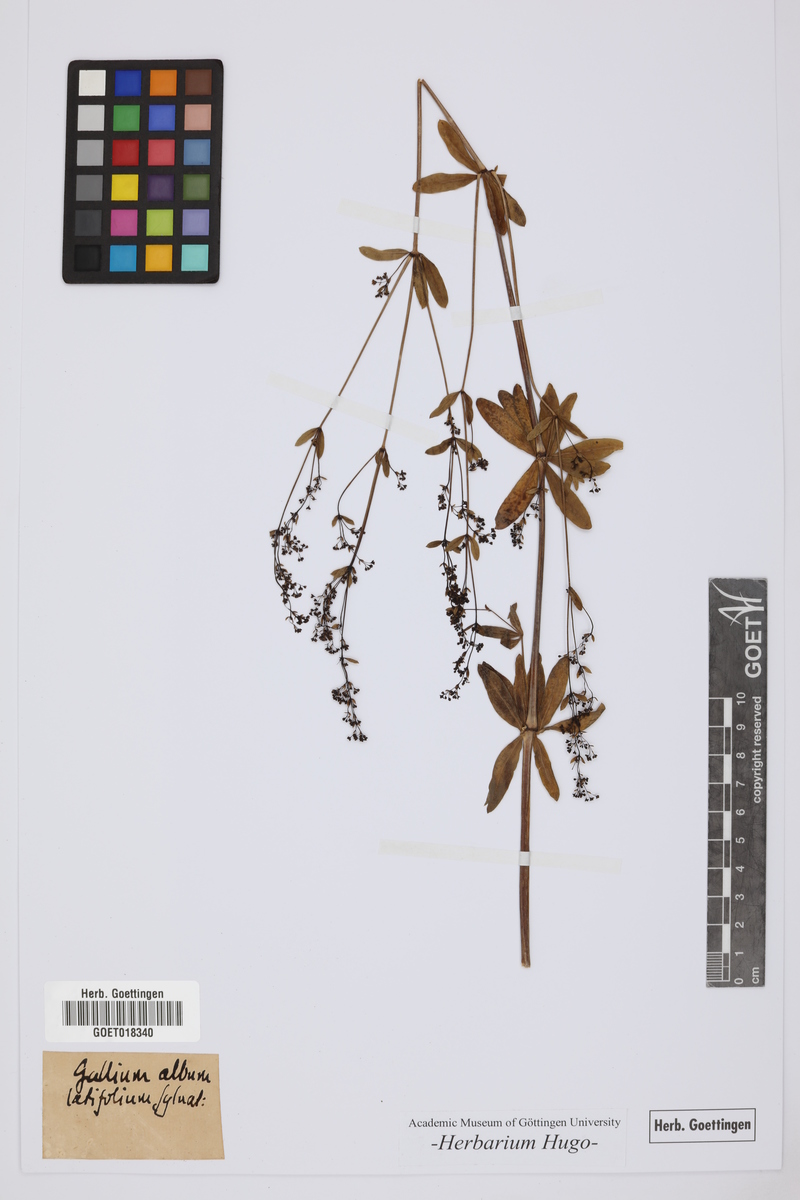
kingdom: Plantae
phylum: Tracheophyta
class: Magnoliopsida
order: Gentianales
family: Rubiaceae
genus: Galium
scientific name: Galium
